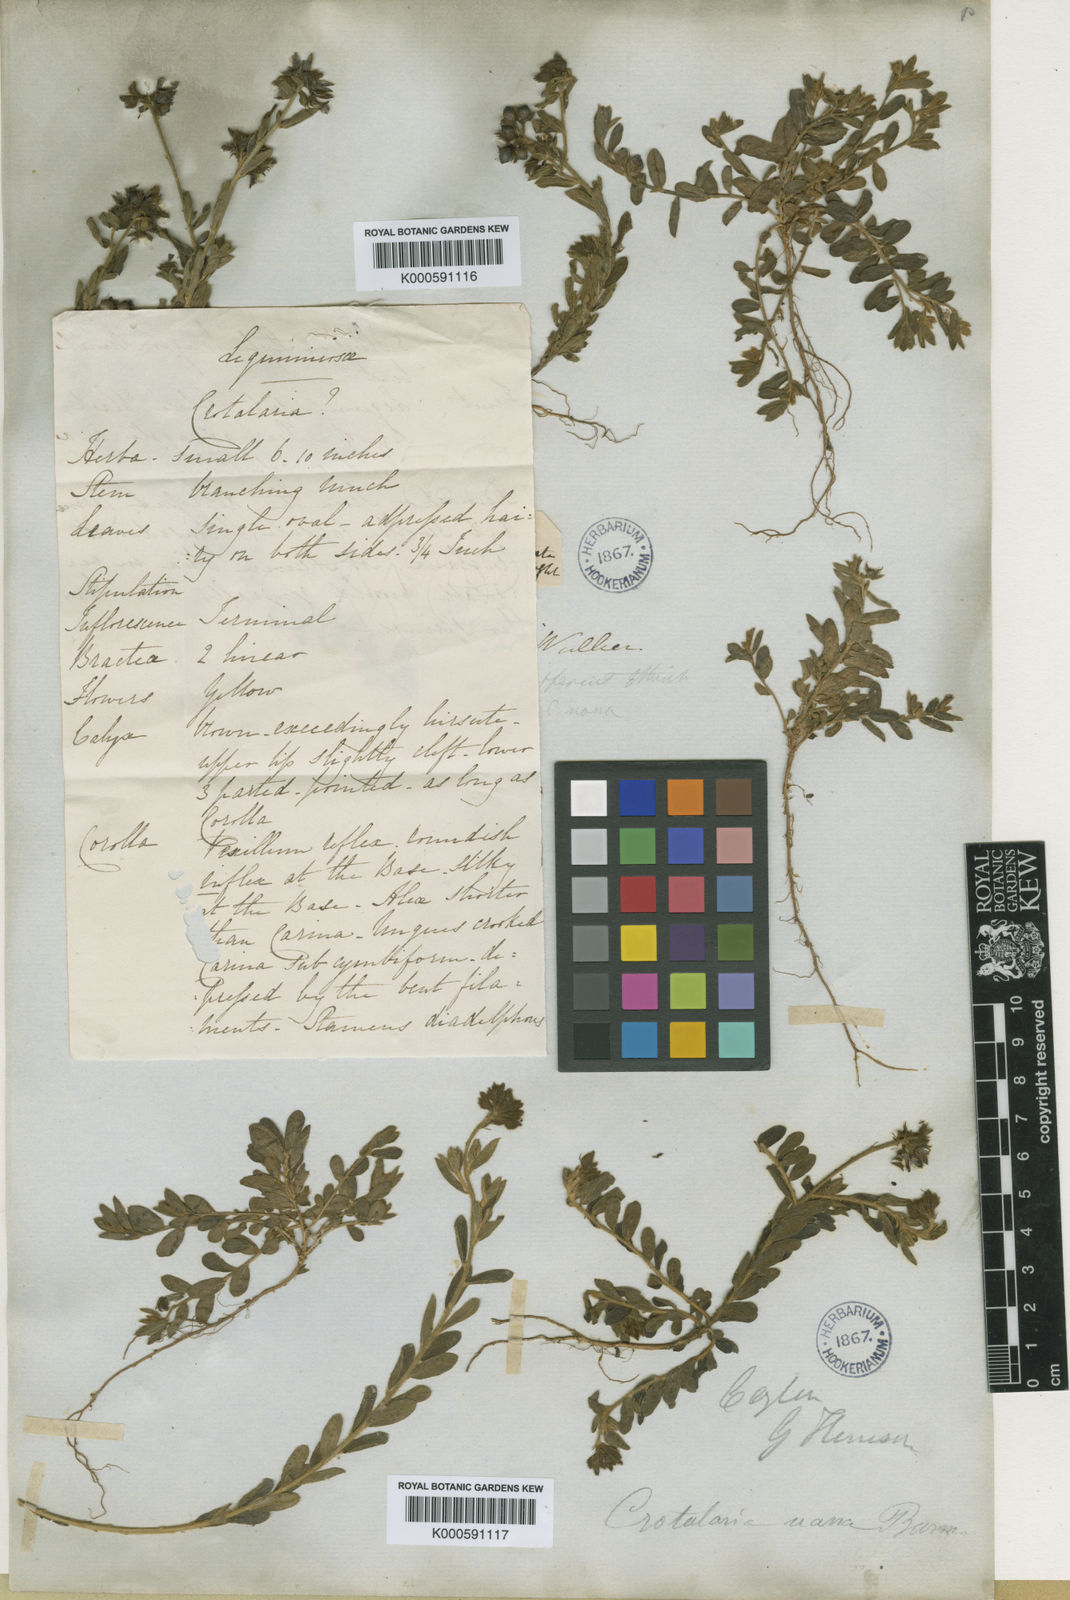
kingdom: Plantae
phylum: Tracheophyta
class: Magnoliopsida
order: Fabales
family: Fabaceae
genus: Crotalaria
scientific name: Crotalaria
